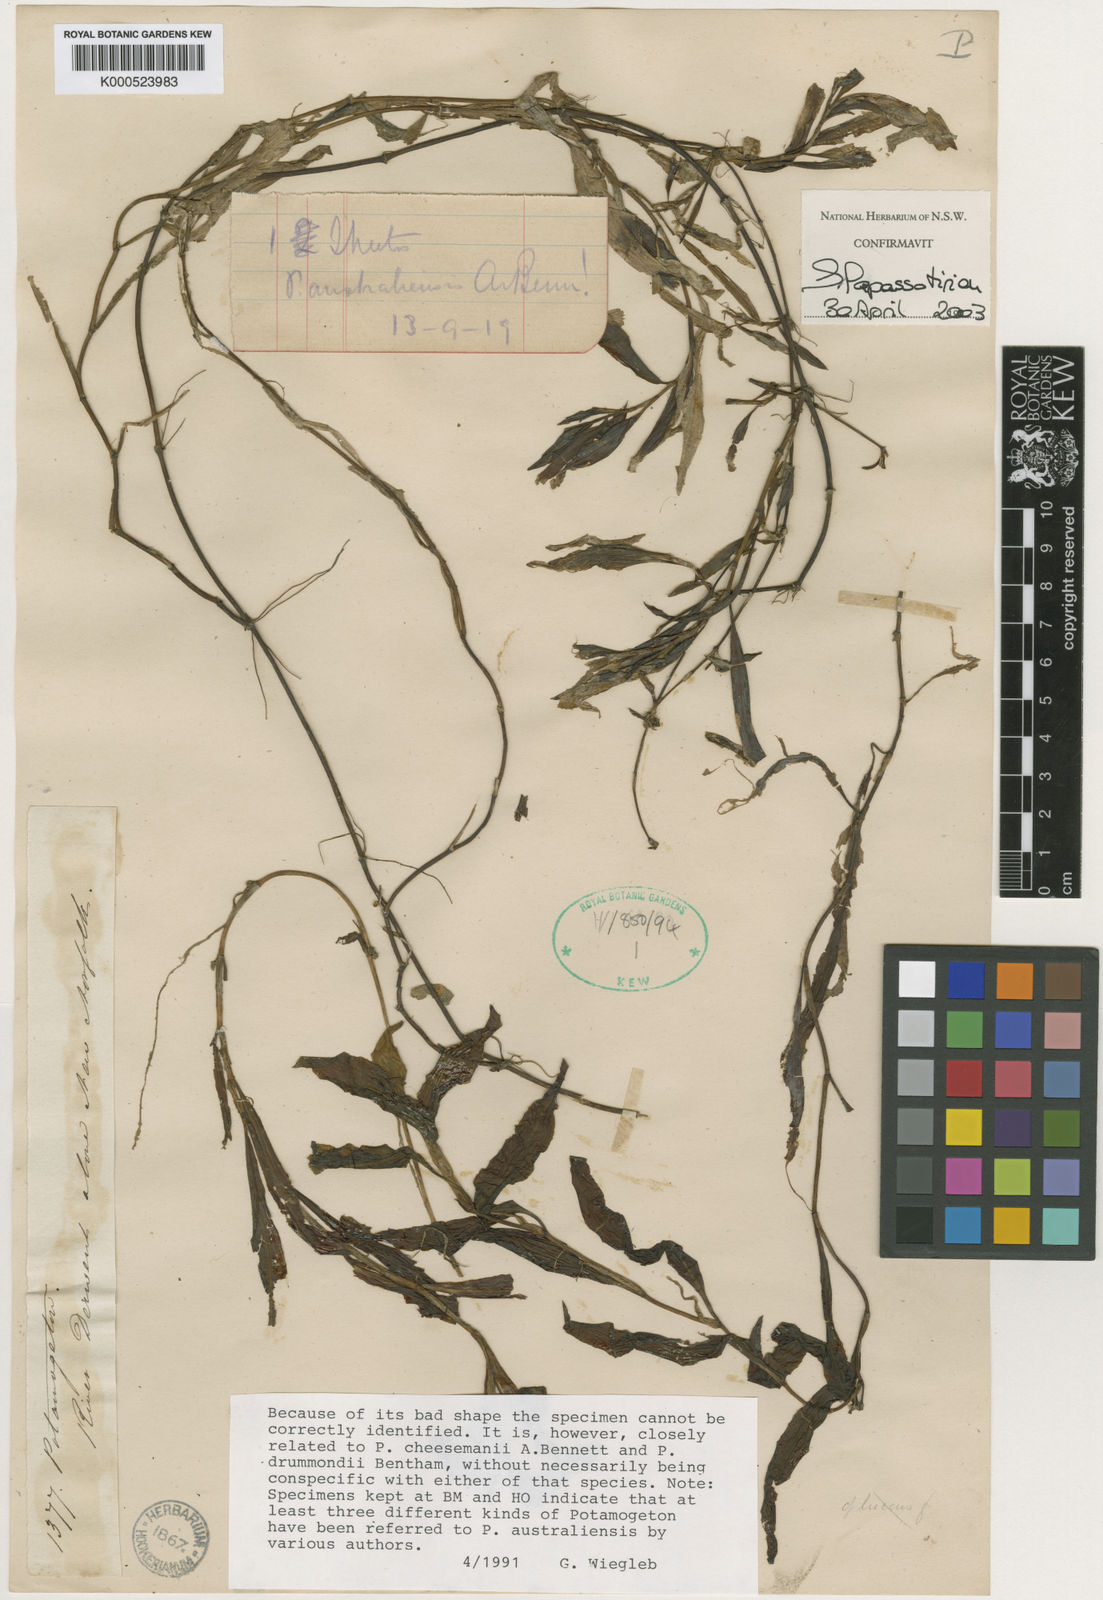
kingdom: Plantae
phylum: Tracheophyta
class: Liliopsida
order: Alismatales
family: Potamogetonaceae
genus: Potamogeton
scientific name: Potamogeton australiensis
